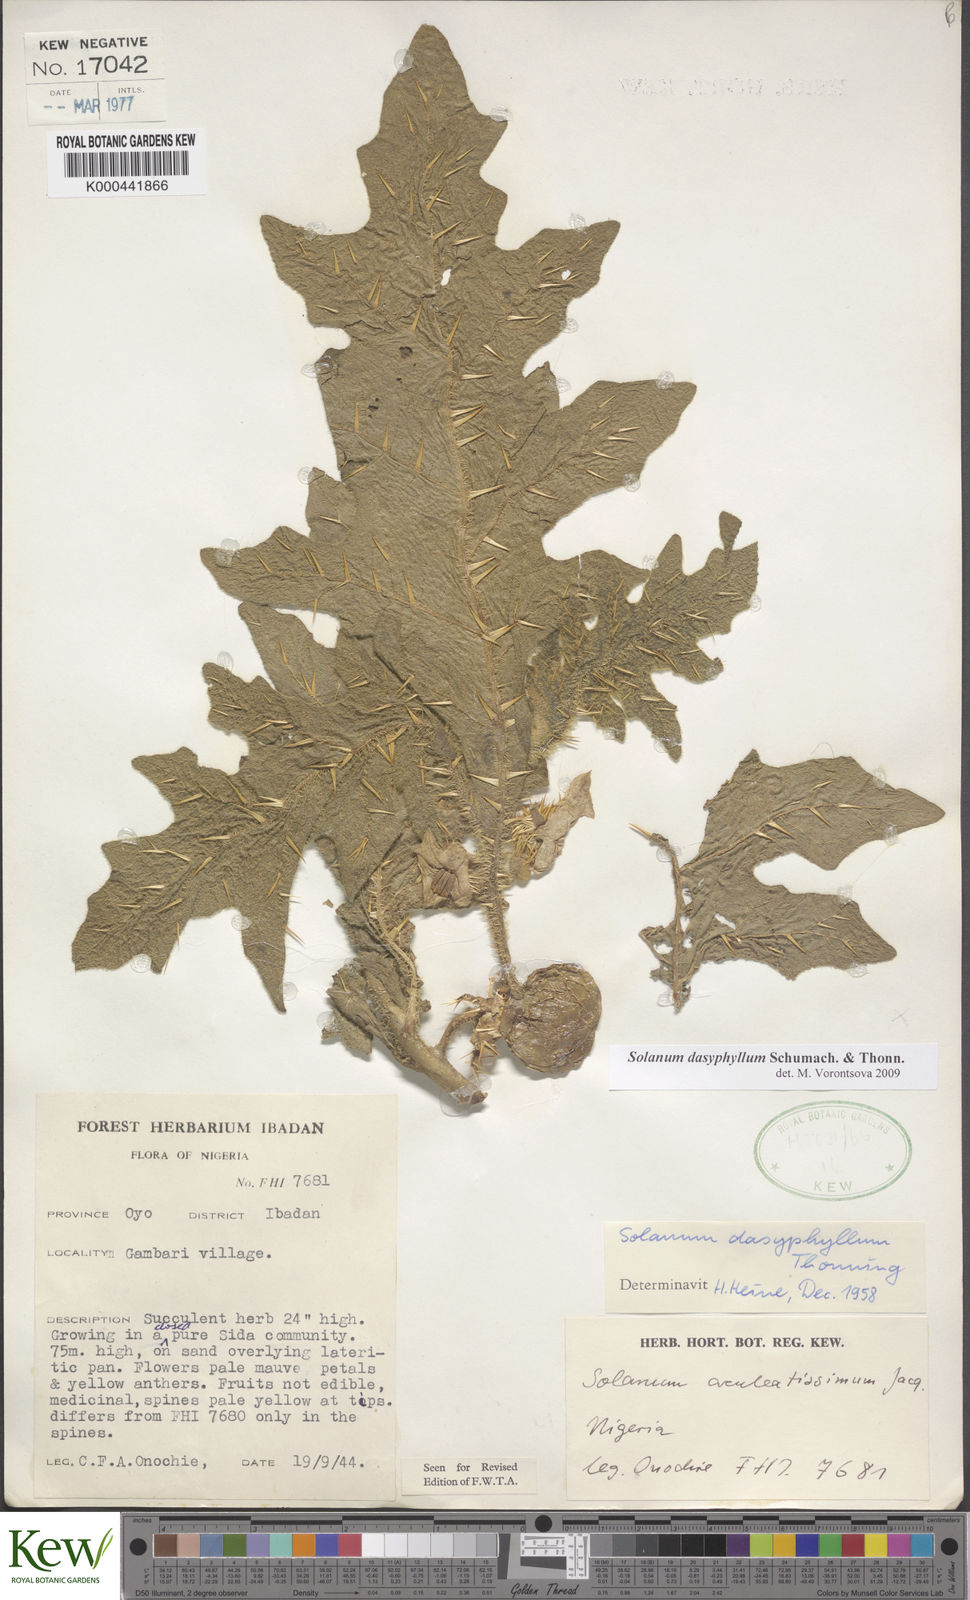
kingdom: Plantae
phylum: Tracheophyta
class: Magnoliopsida
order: Solanales
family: Solanaceae
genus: Solanum
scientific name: Solanum dasyphyllum
